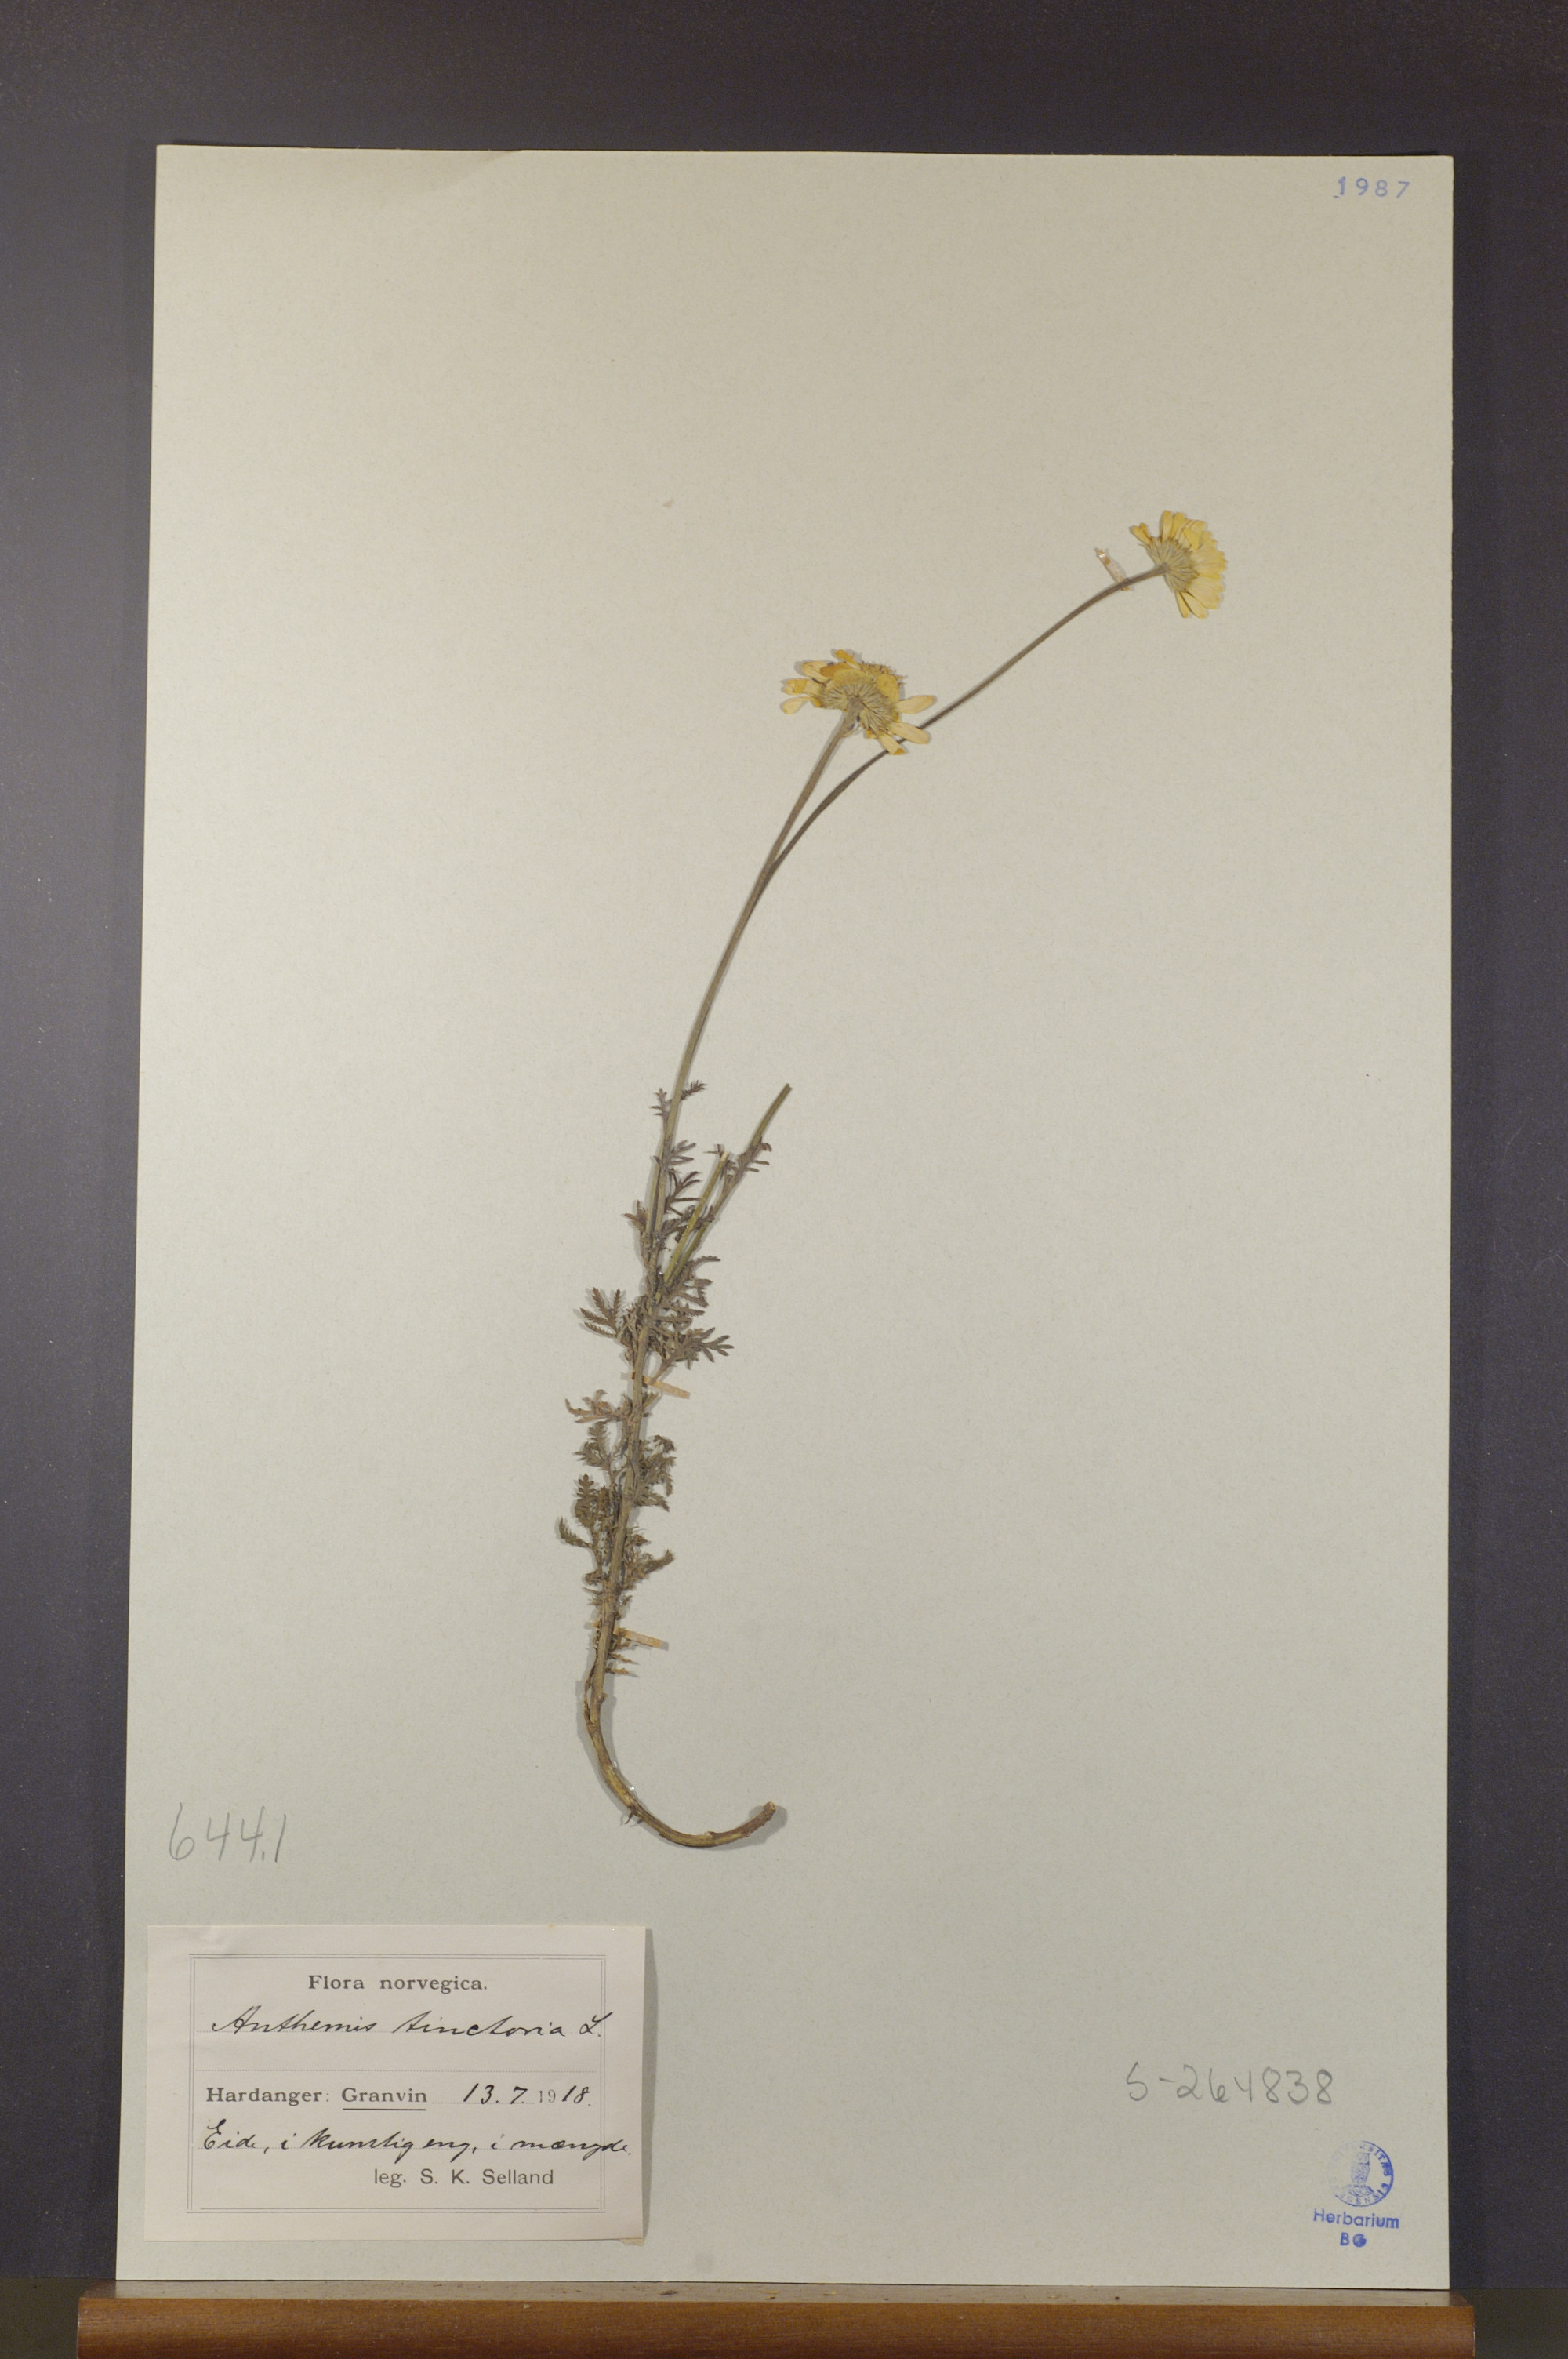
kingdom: Plantae
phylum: Tracheophyta
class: Magnoliopsida
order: Asterales
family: Asteraceae
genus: Cota
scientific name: Cota tinctoria
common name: Golden chamomile
